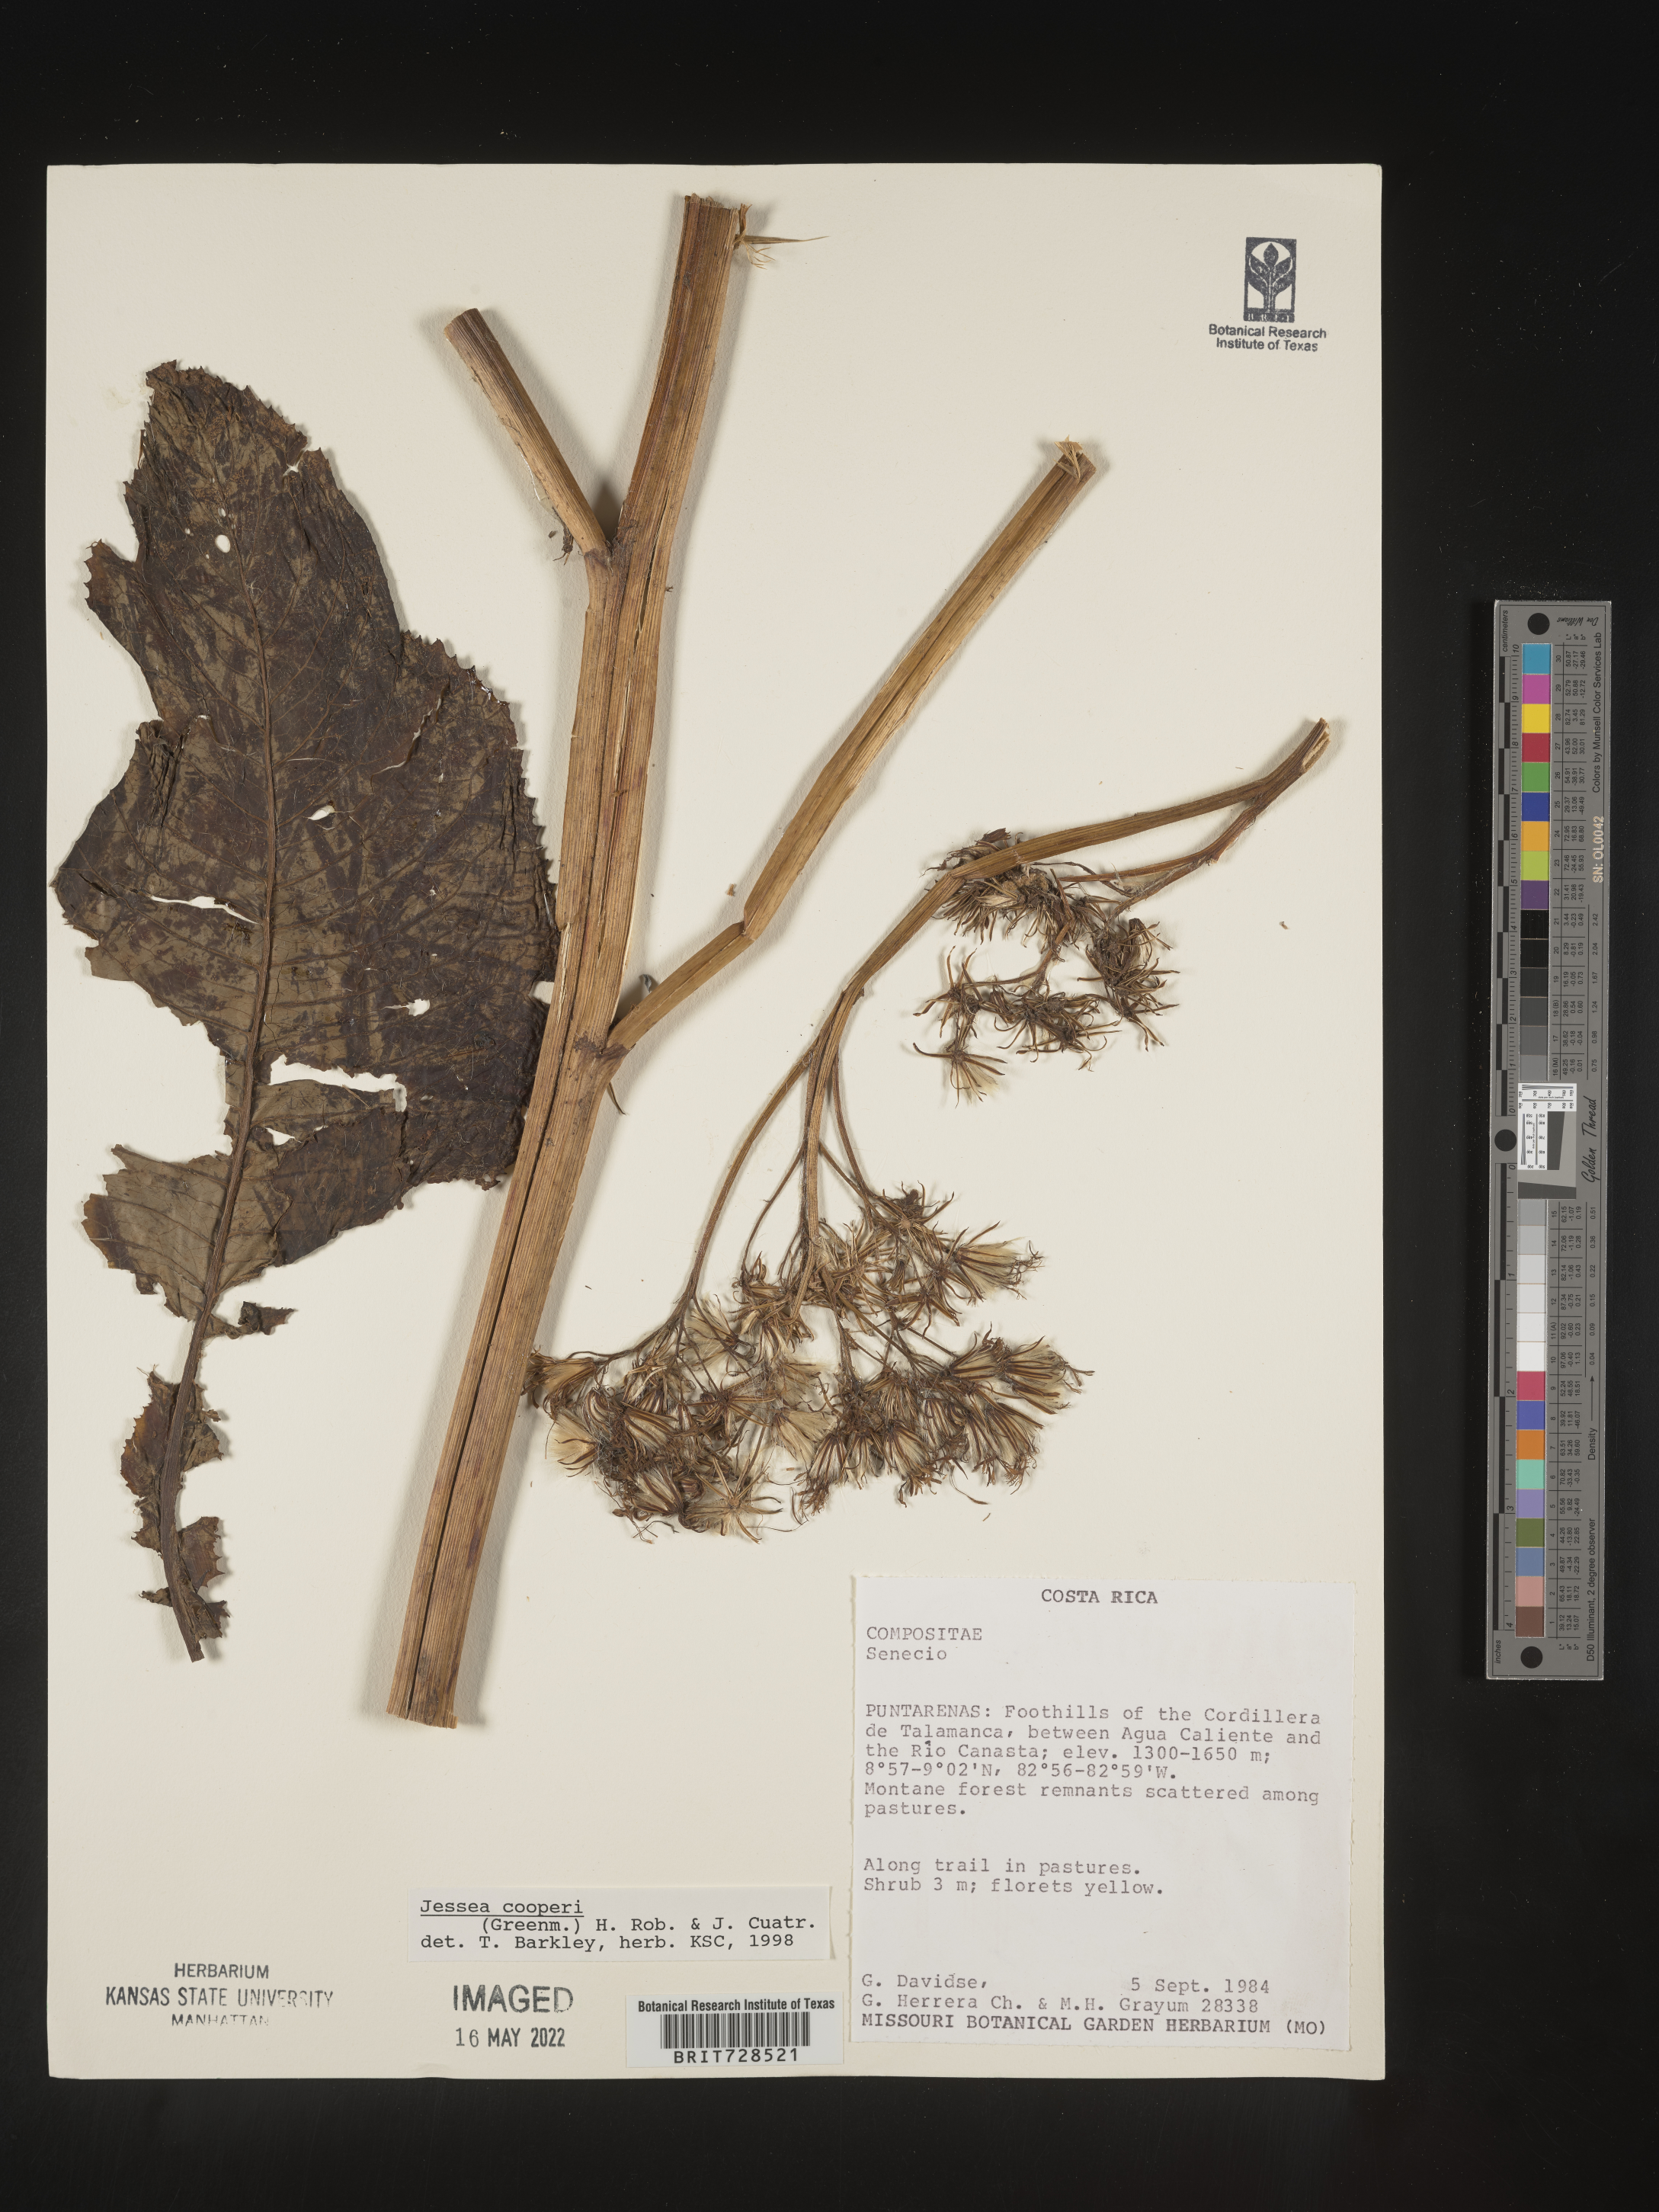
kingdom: Plantae
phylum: Tracheophyta
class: Magnoliopsida
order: Asterales
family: Asteraceae
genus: Jessea
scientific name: Jessea
